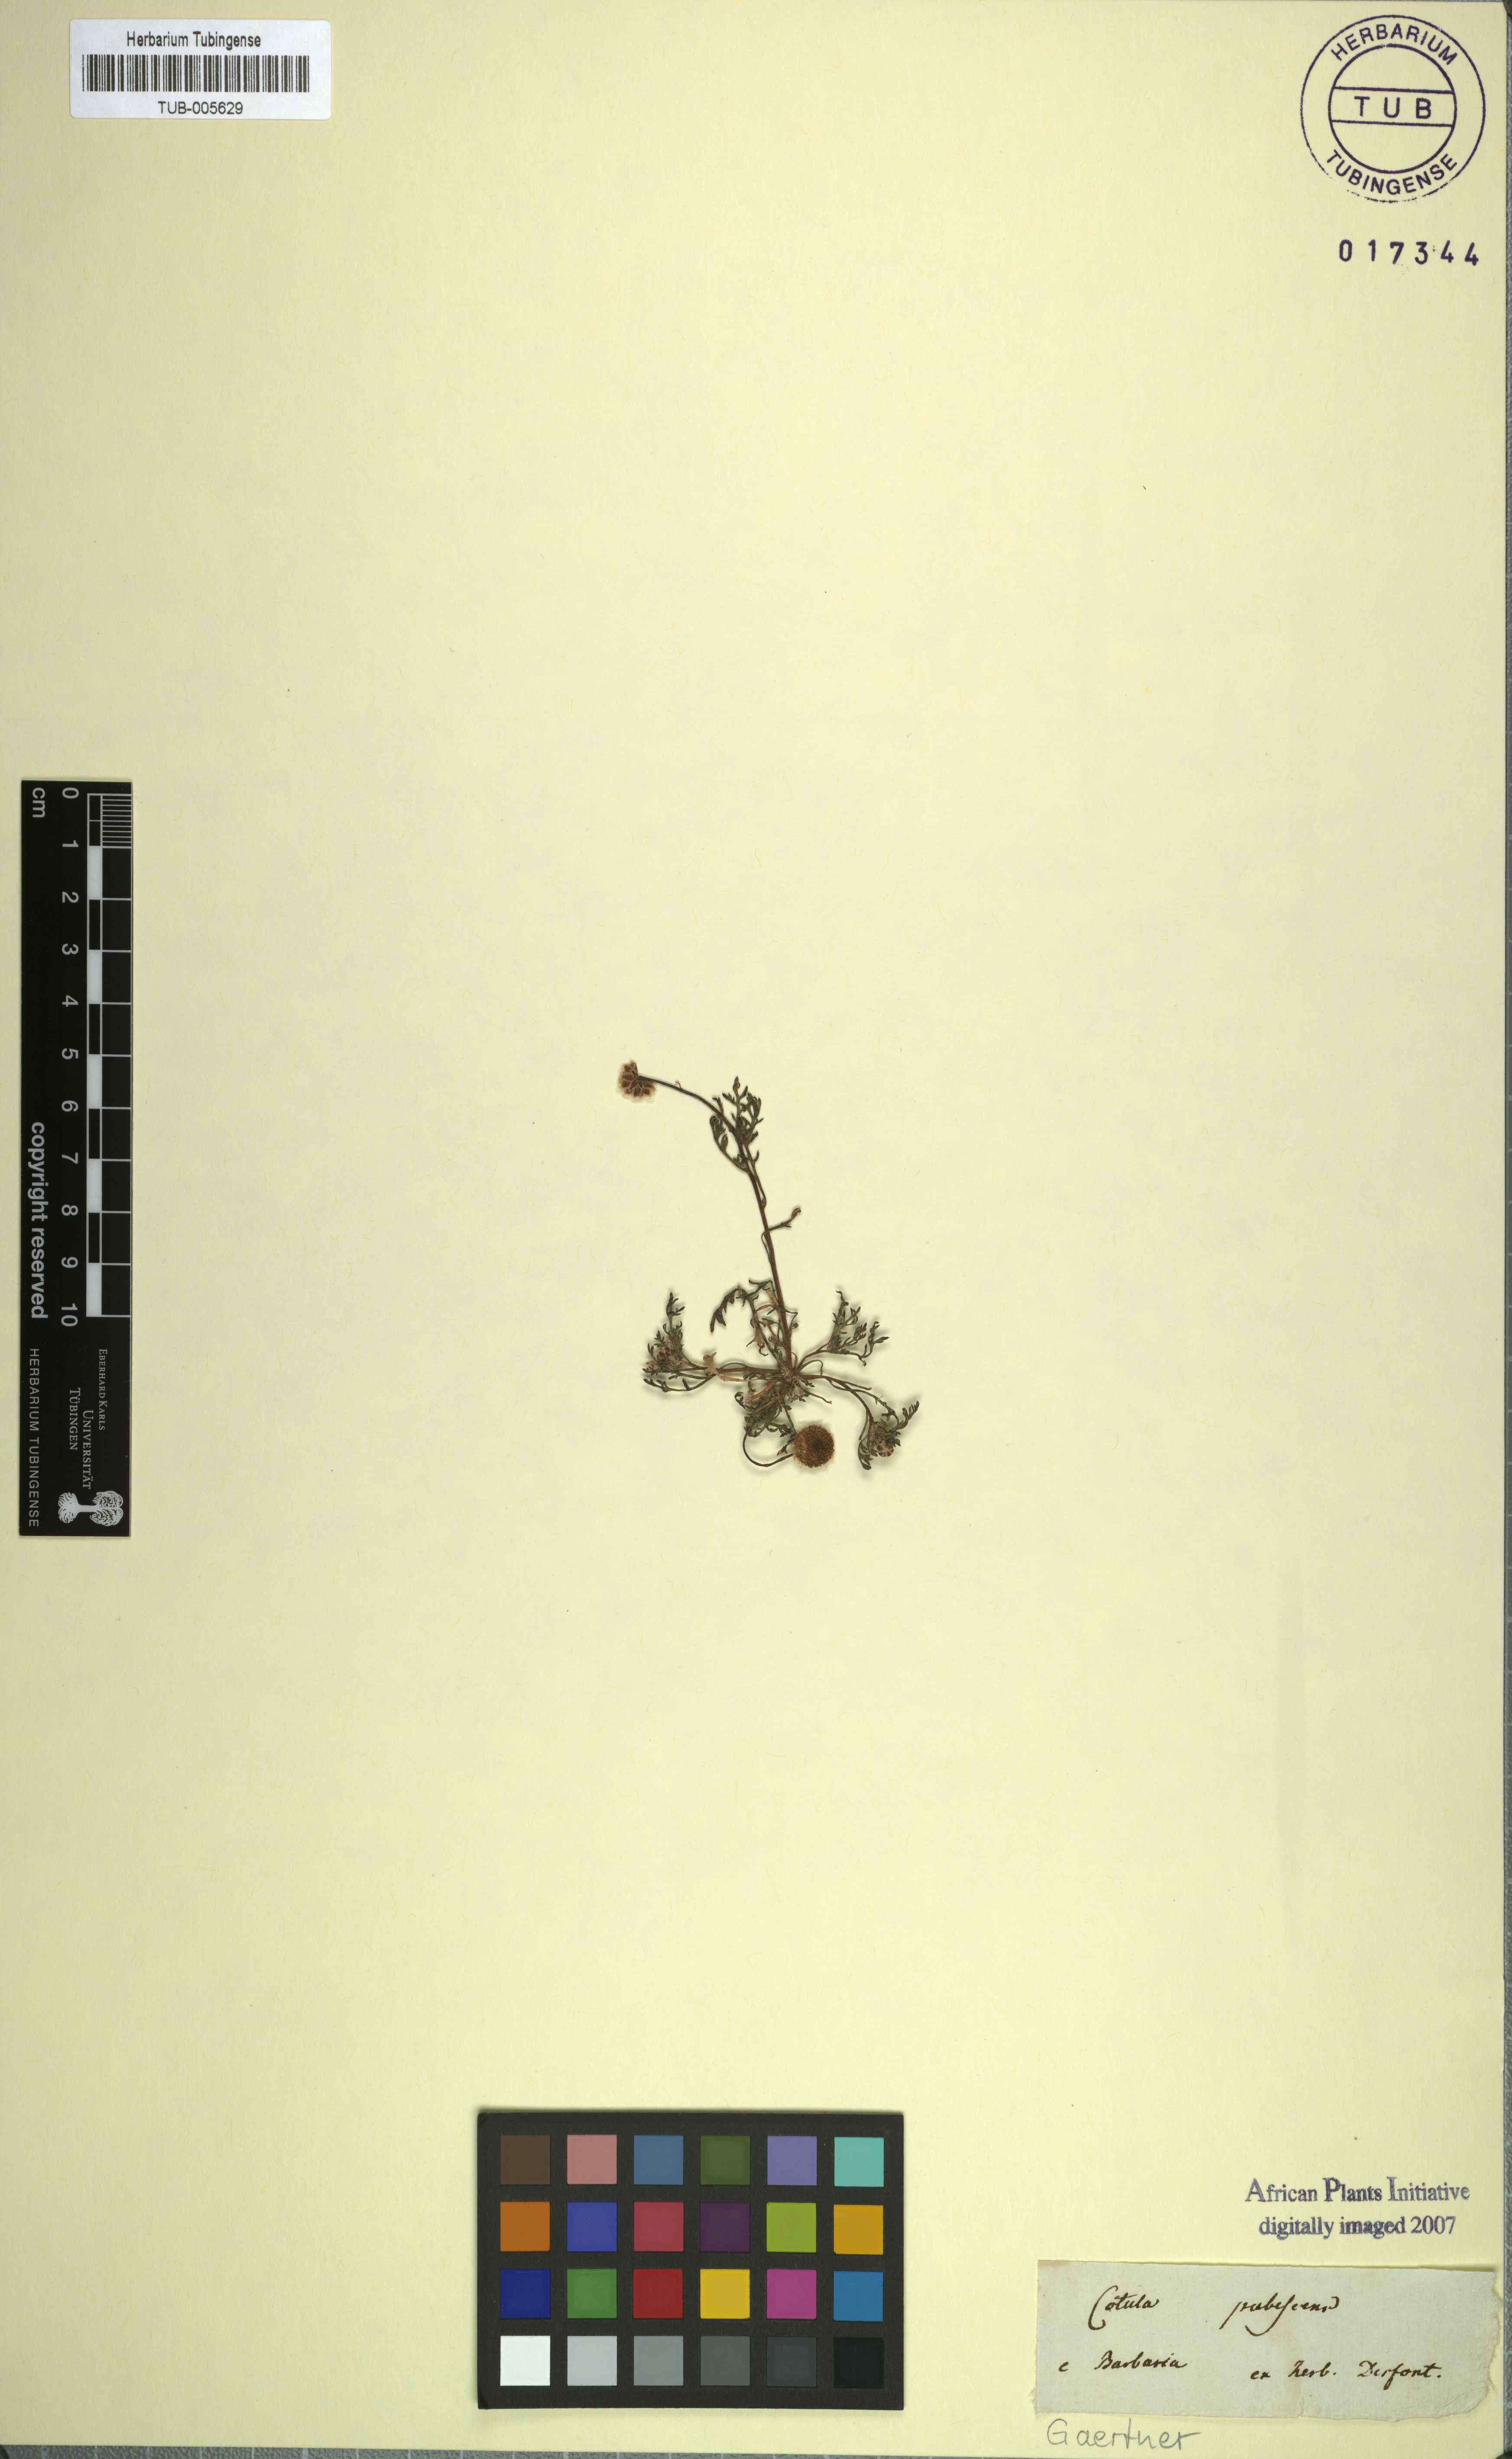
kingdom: Plantae
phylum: Tracheophyta
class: Magnoliopsida
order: Asterales
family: Asteraceae
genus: Otoglyphis
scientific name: Otoglyphis pubescens
